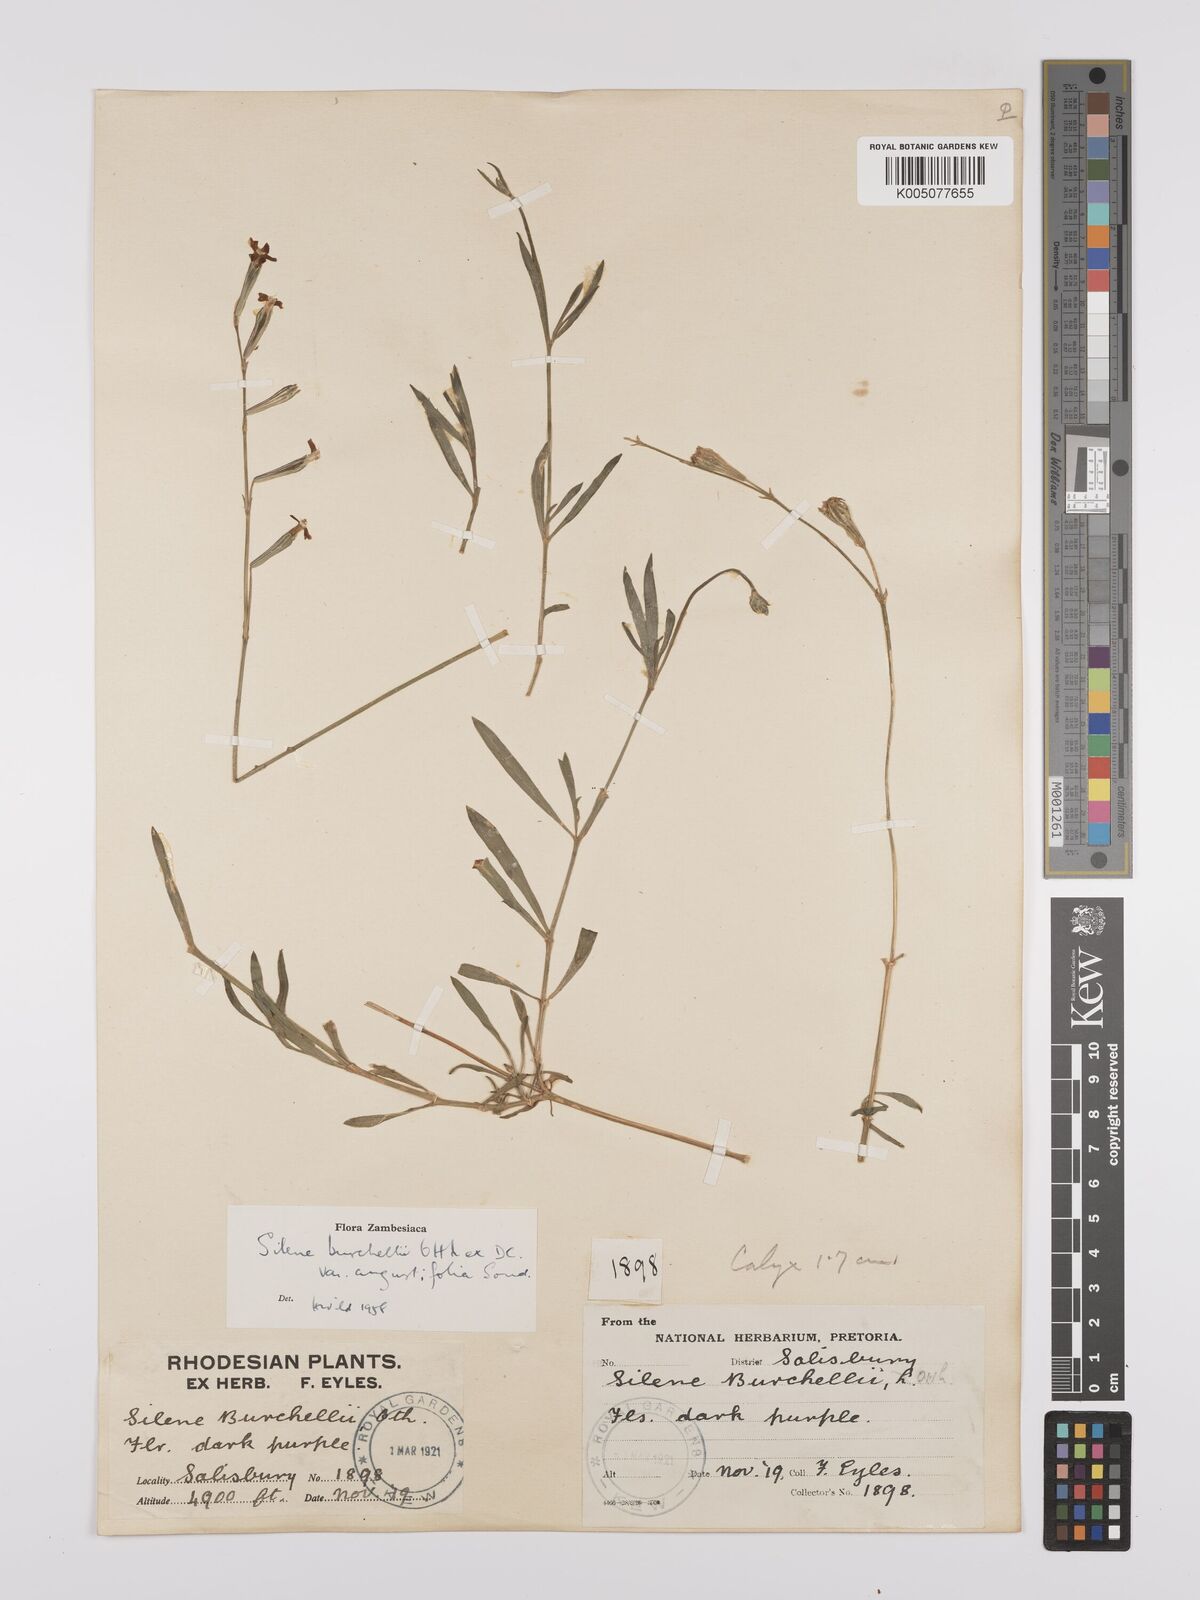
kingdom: Plantae
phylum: Tracheophyta
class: Magnoliopsida
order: Caryophyllales
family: Caryophyllaceae
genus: Silene
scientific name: Silene burchellii
